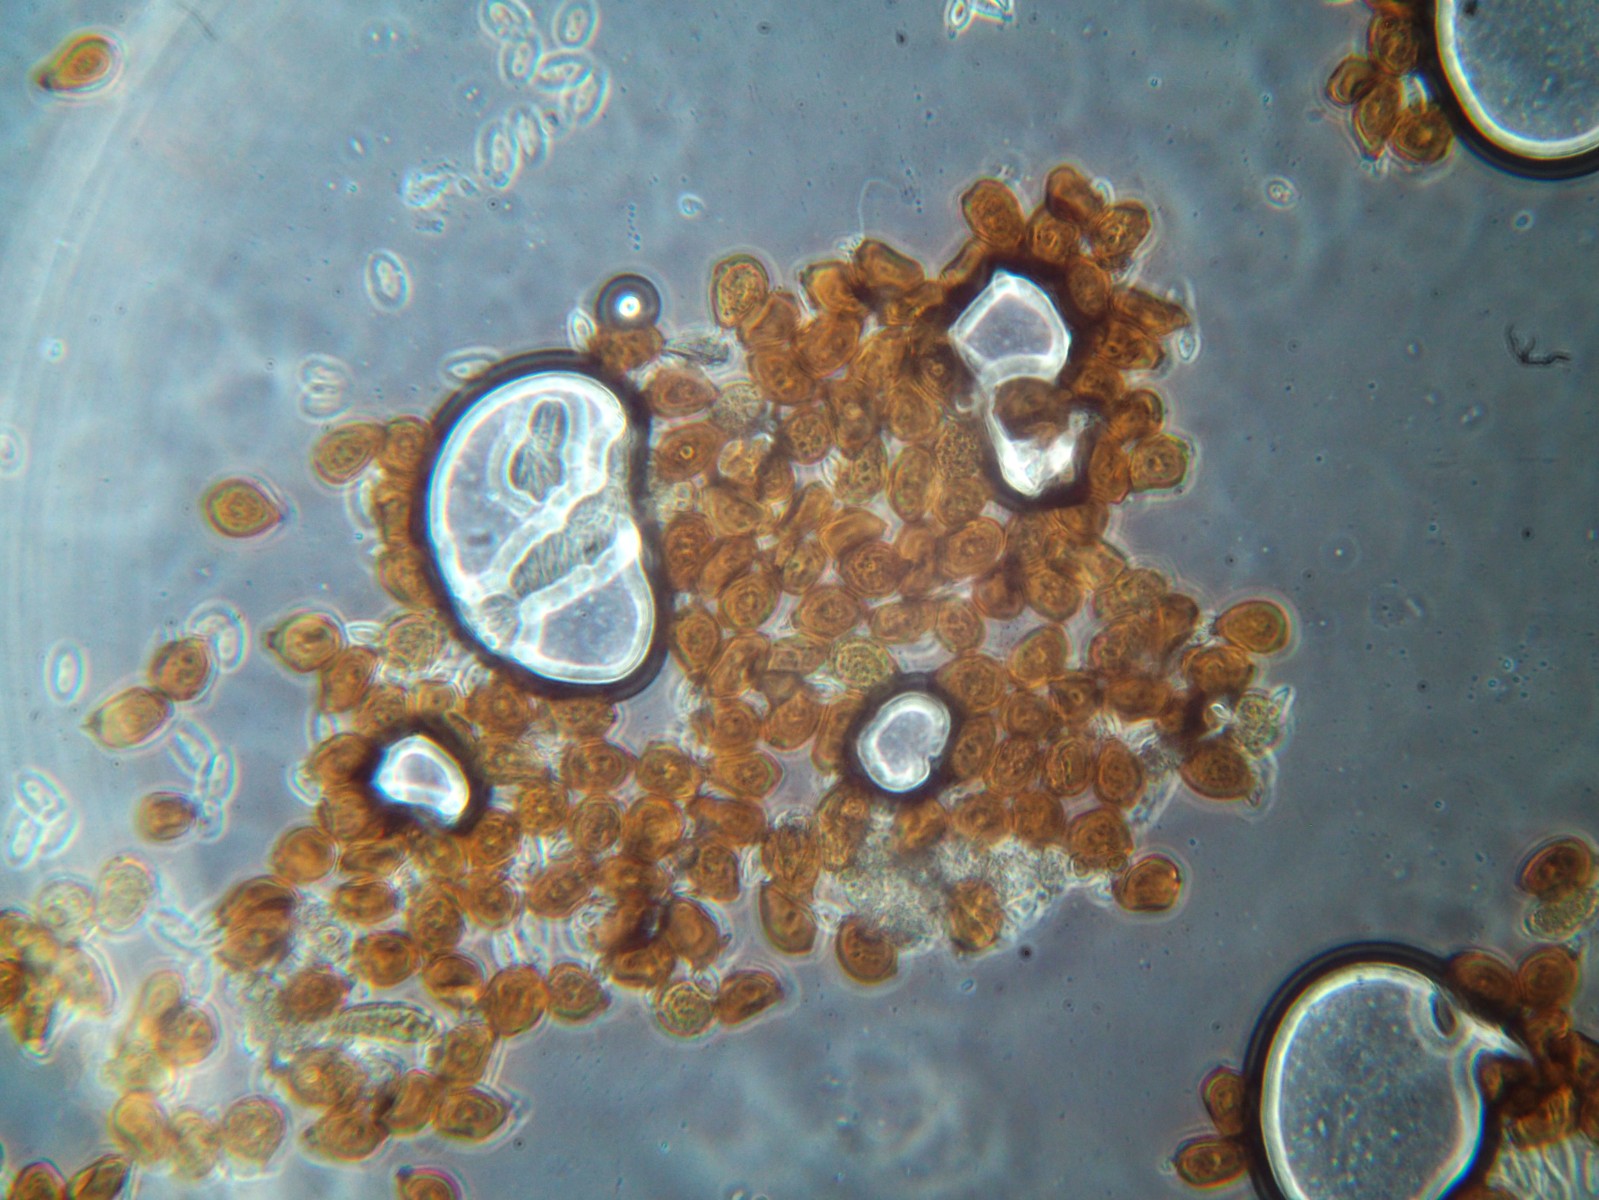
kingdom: Fungi
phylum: Basidiomycota
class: Pucciniomycetes
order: Pucciniales
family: Pucciniaceae
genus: Uromyces
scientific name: Uromyces rumicis
